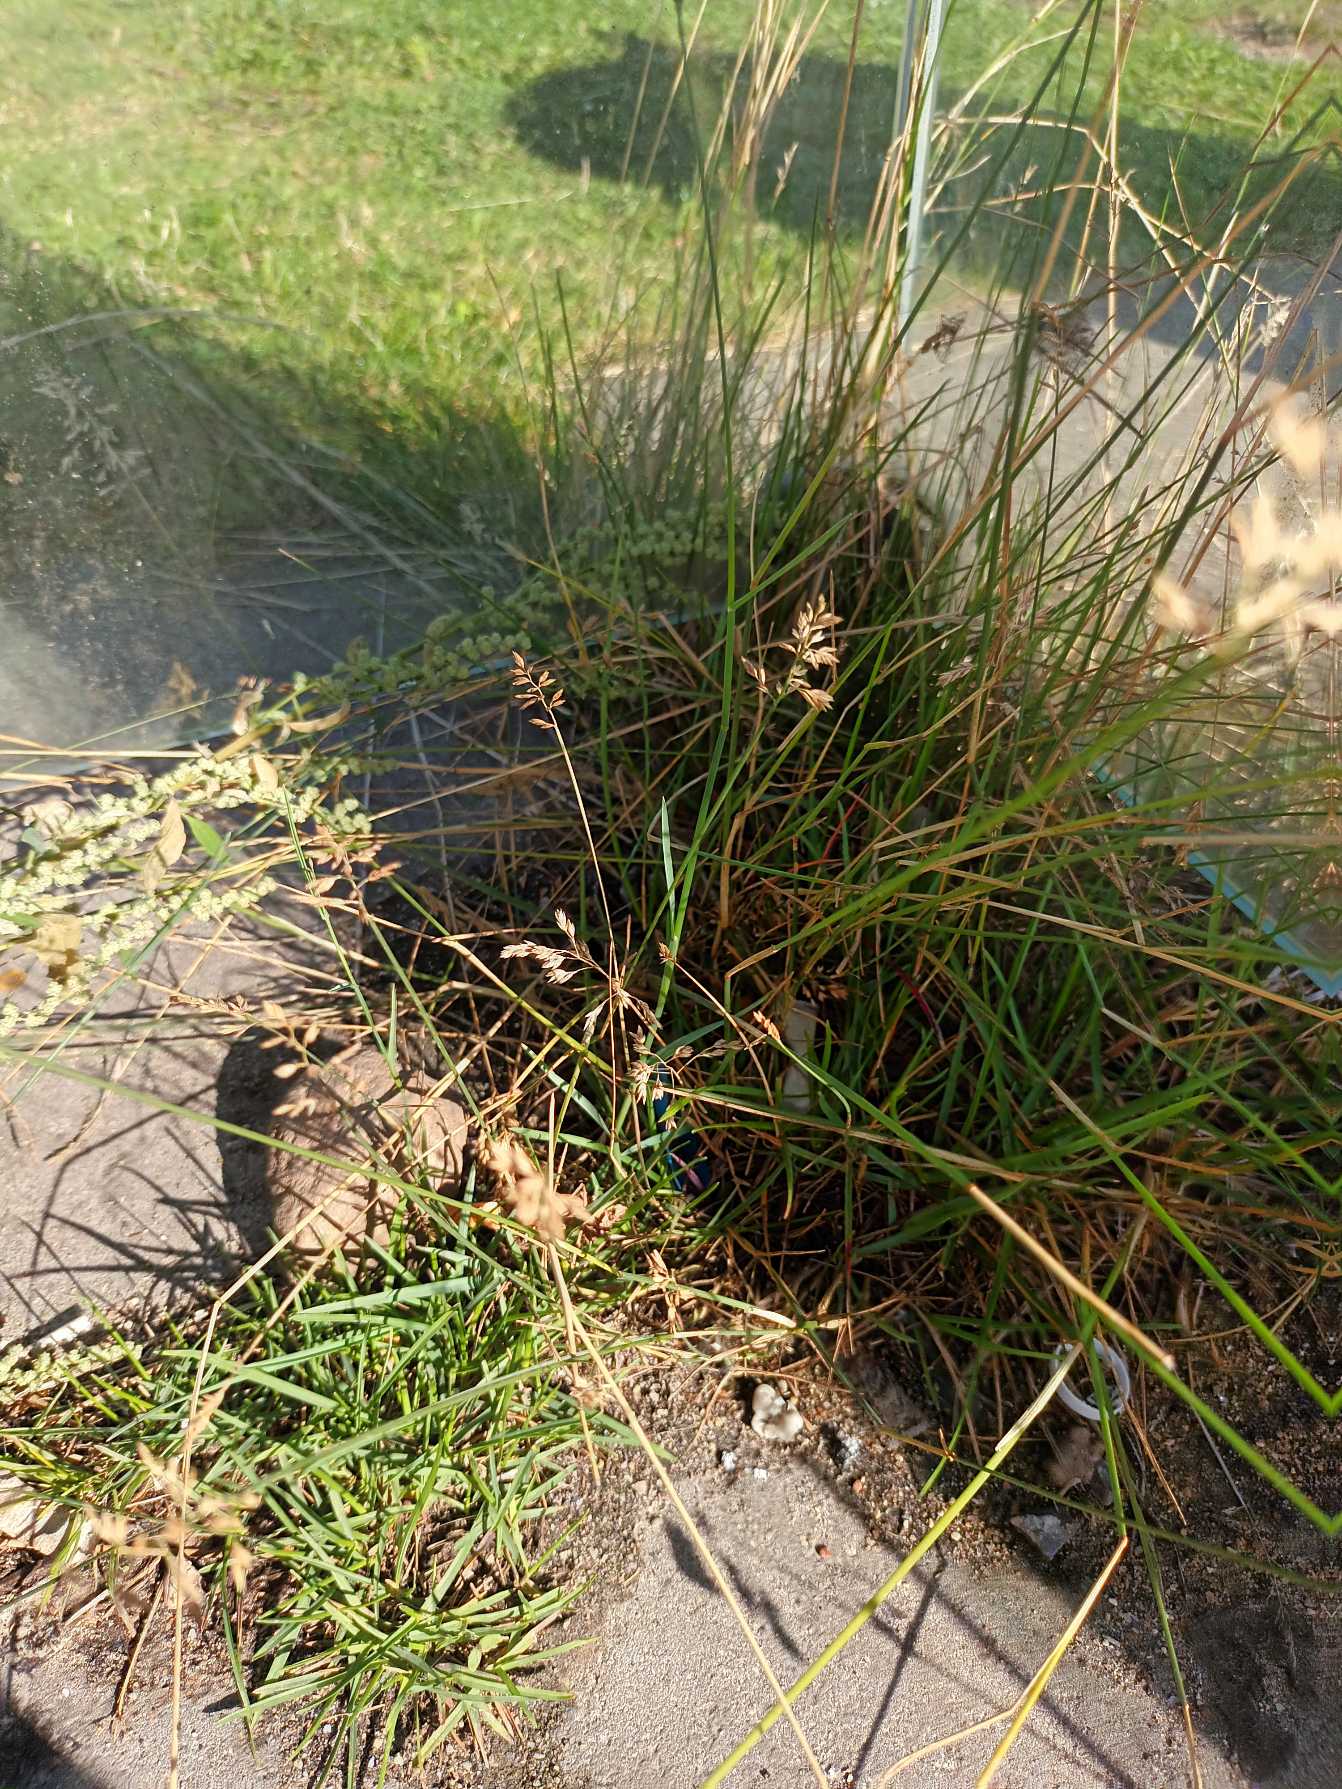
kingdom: Plantae
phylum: Tracheophyta
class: Liliopsida
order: Poales
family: Poaceae
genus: Poa
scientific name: Poa compressa
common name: Fladstrået rapgræs
